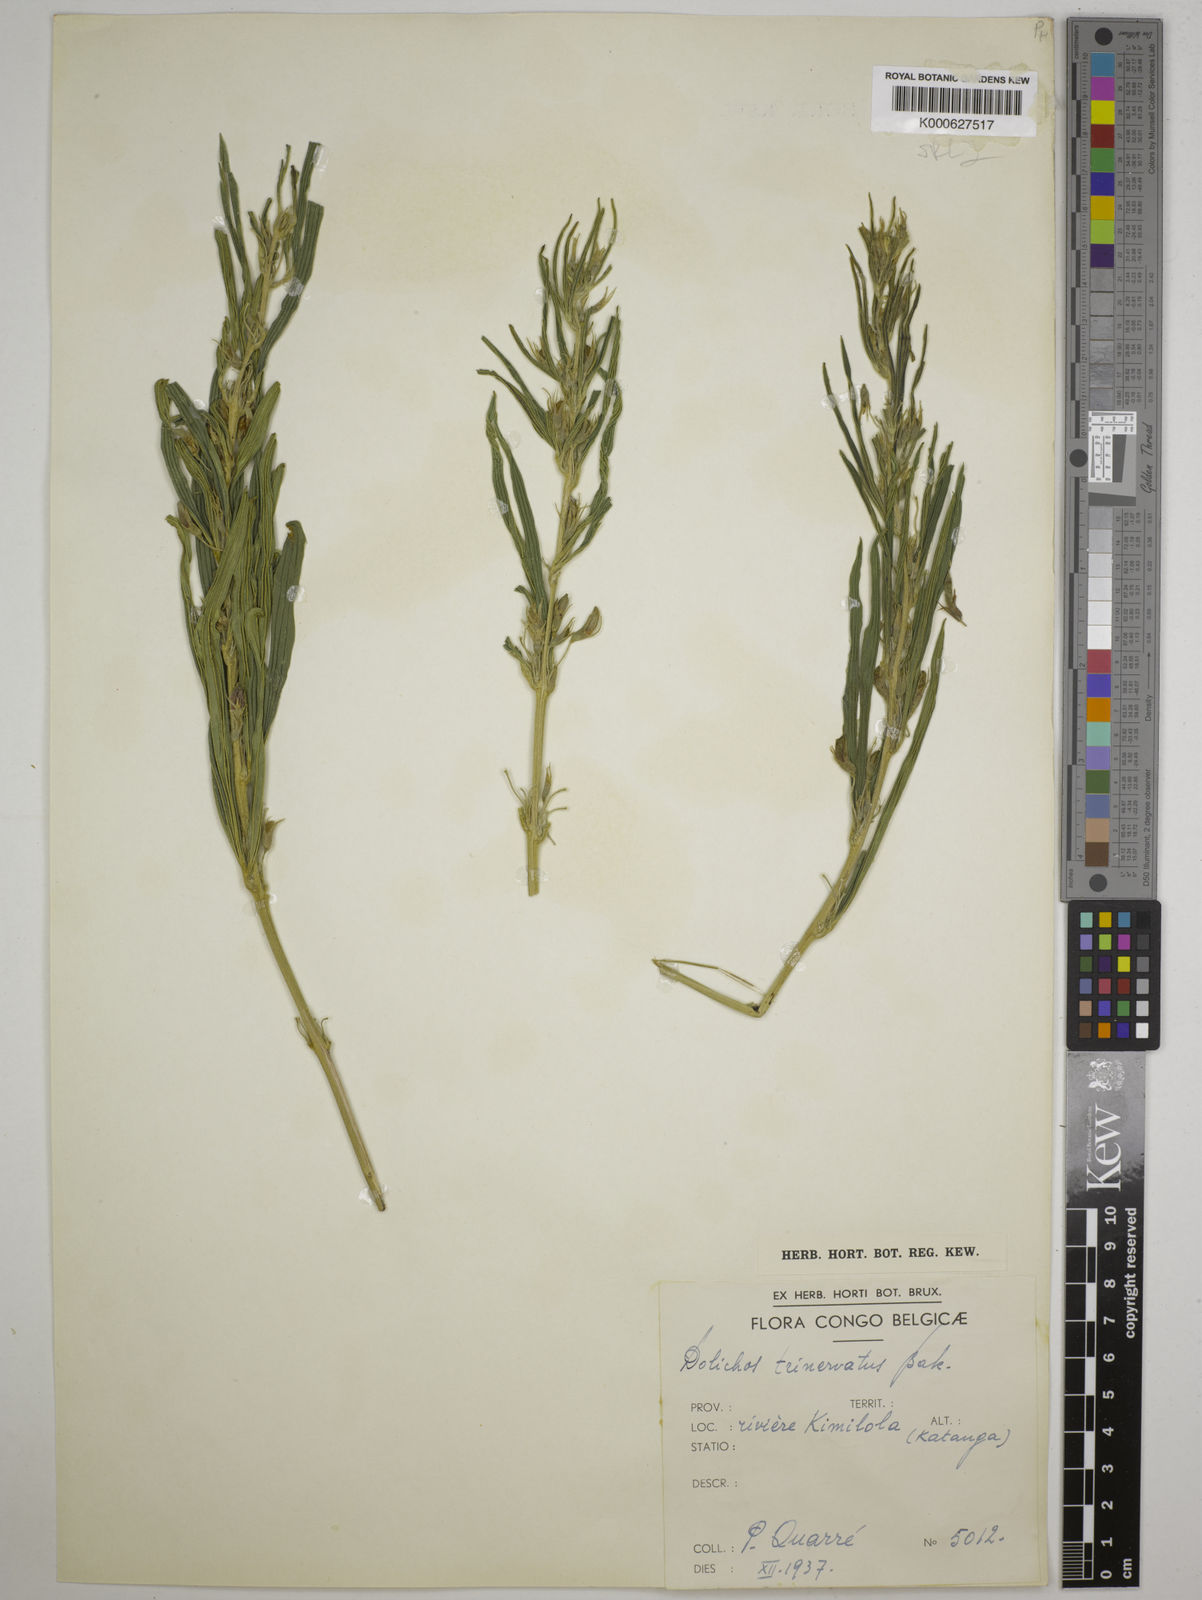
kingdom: Plantae
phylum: Tracheophyta
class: Magnoliopsida
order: Fabales
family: Fabaceae
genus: Dolichos
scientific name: Dolichos trinervatus
